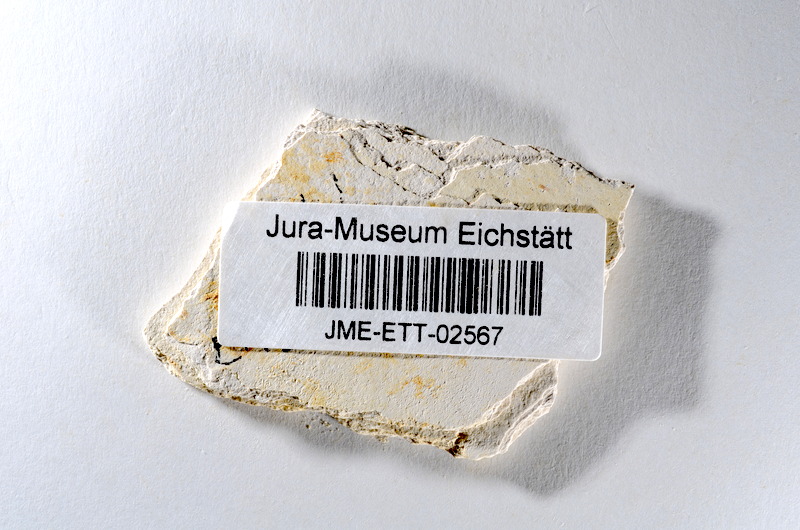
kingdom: Animalia
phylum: Chordata
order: Salmoniformes
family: Orthogonikleithridae
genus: Orthogonikleithrus
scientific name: Orthogonikleithrus hoelli
